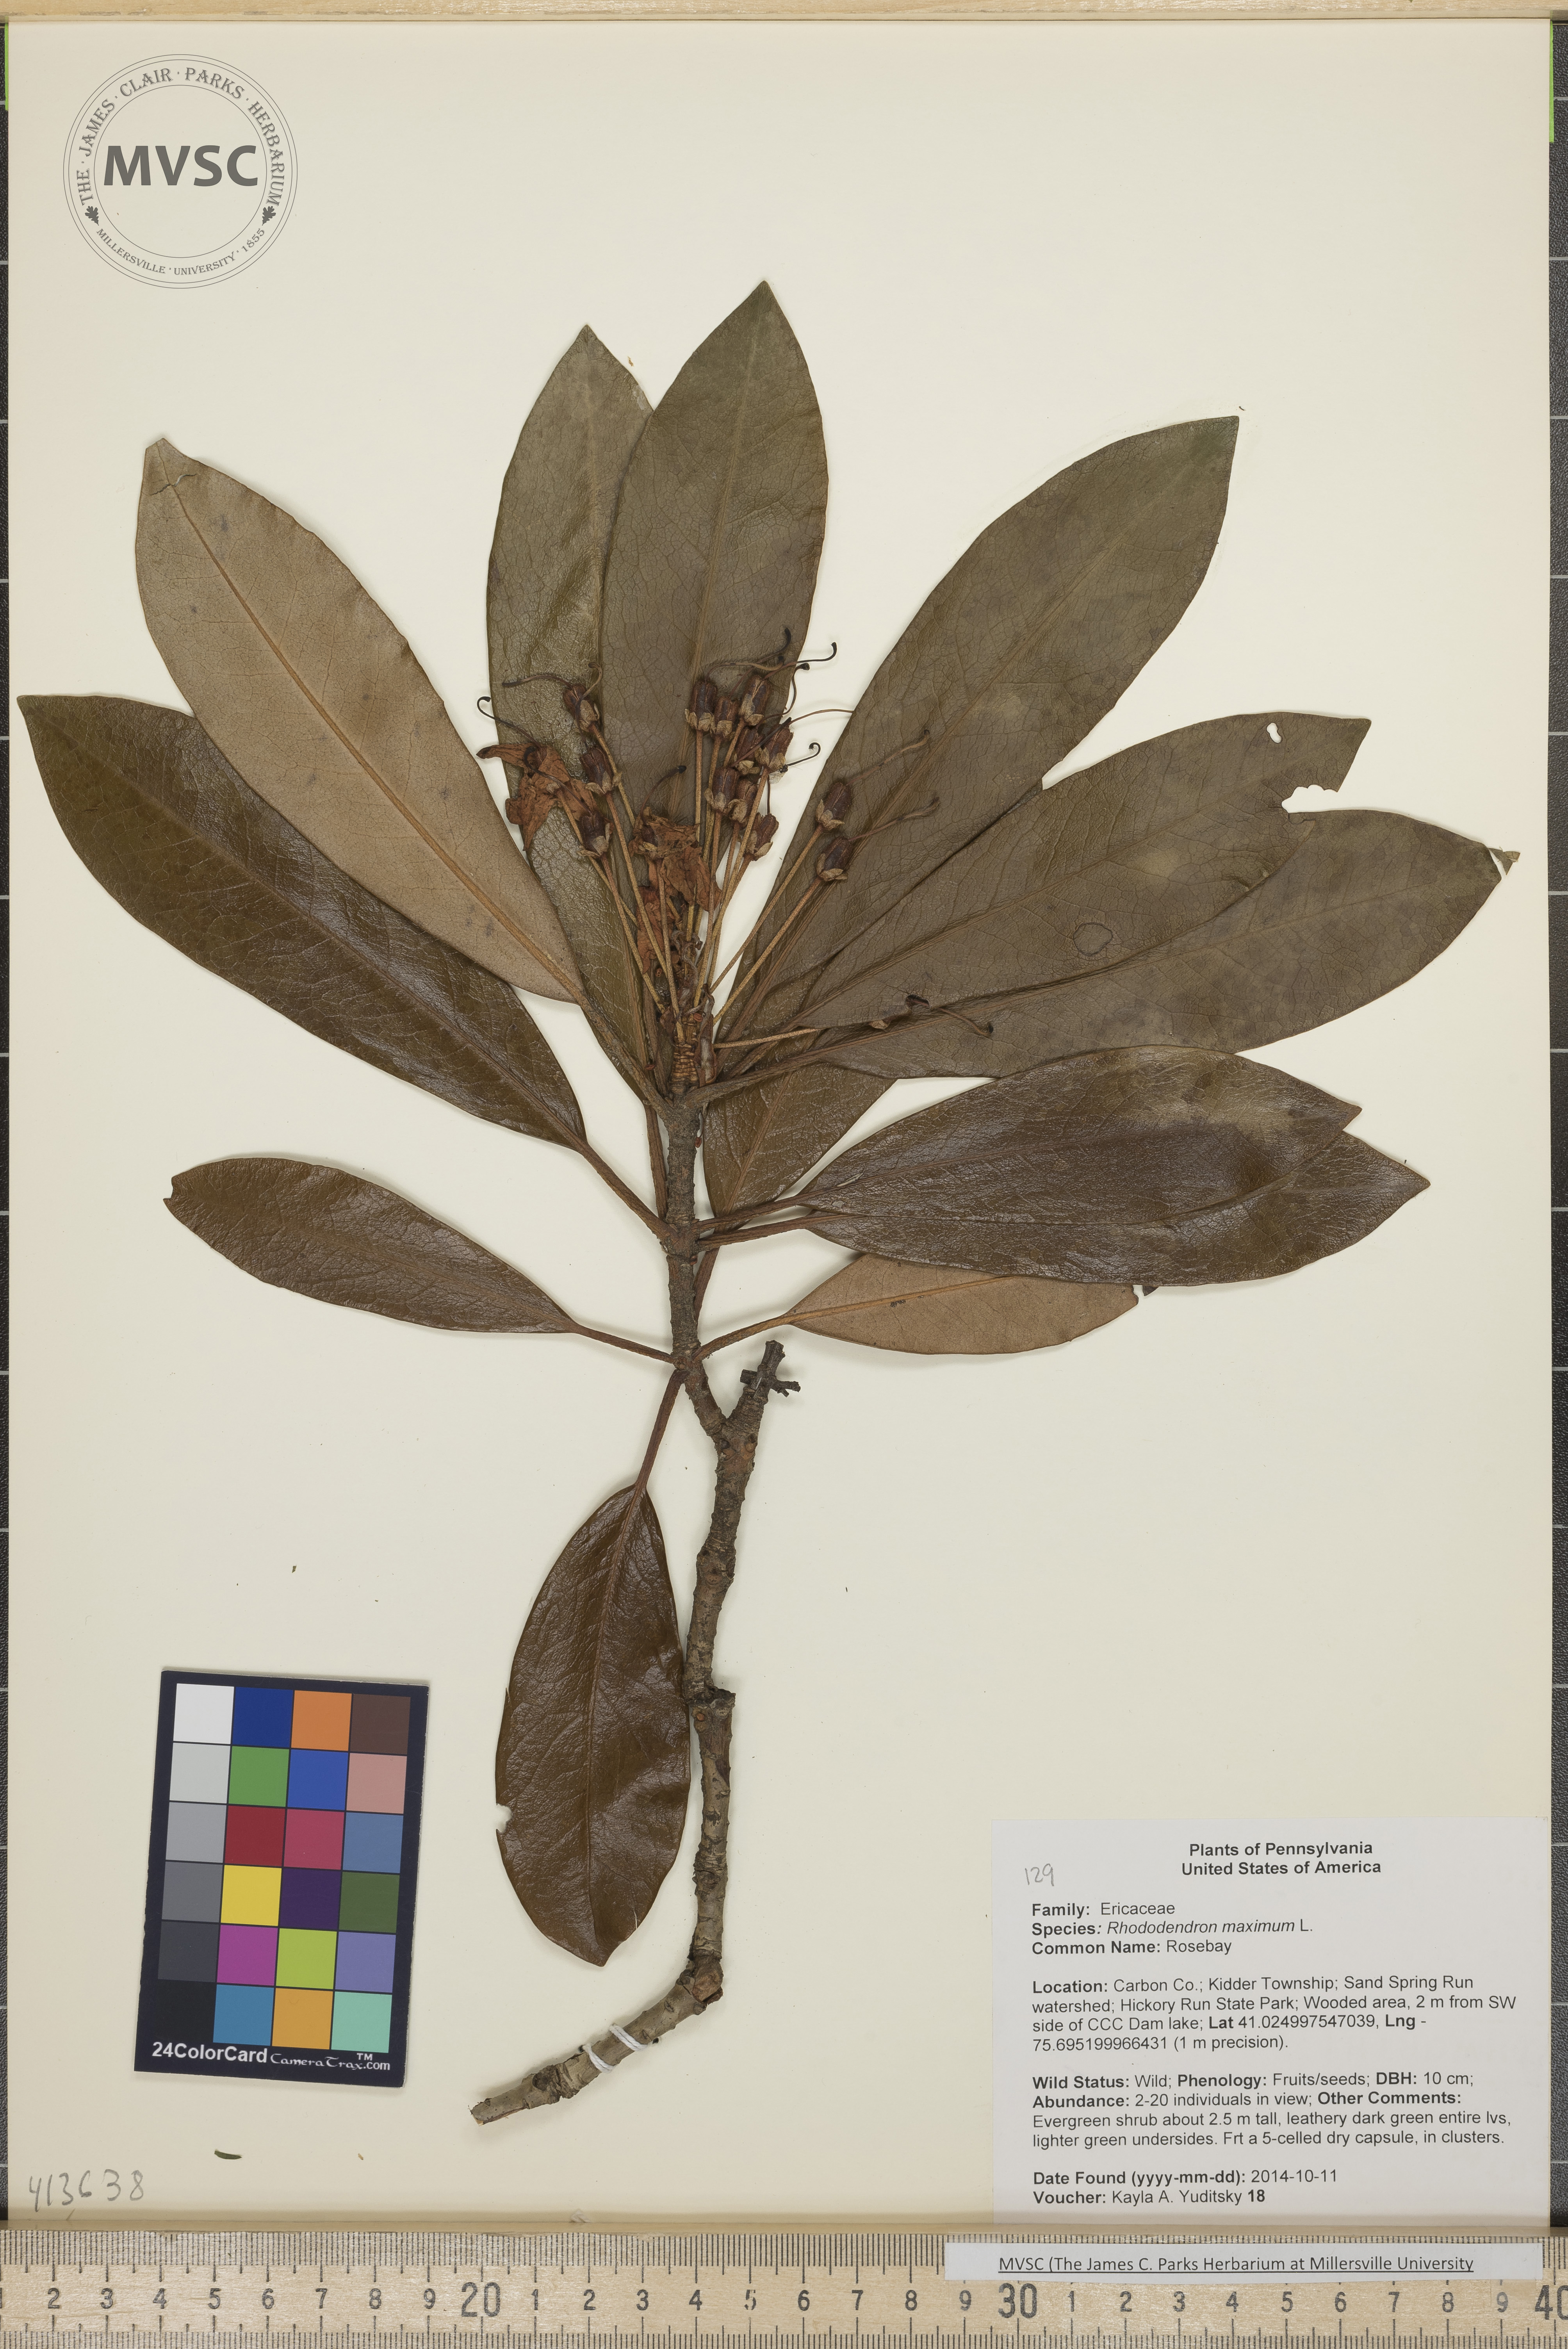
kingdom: Plantae
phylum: Tracheophyta
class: Magnoliopsida
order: Ericales
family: Ericaceae
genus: Rhododendron
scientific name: Rhododendron maximum
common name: Rosebay
